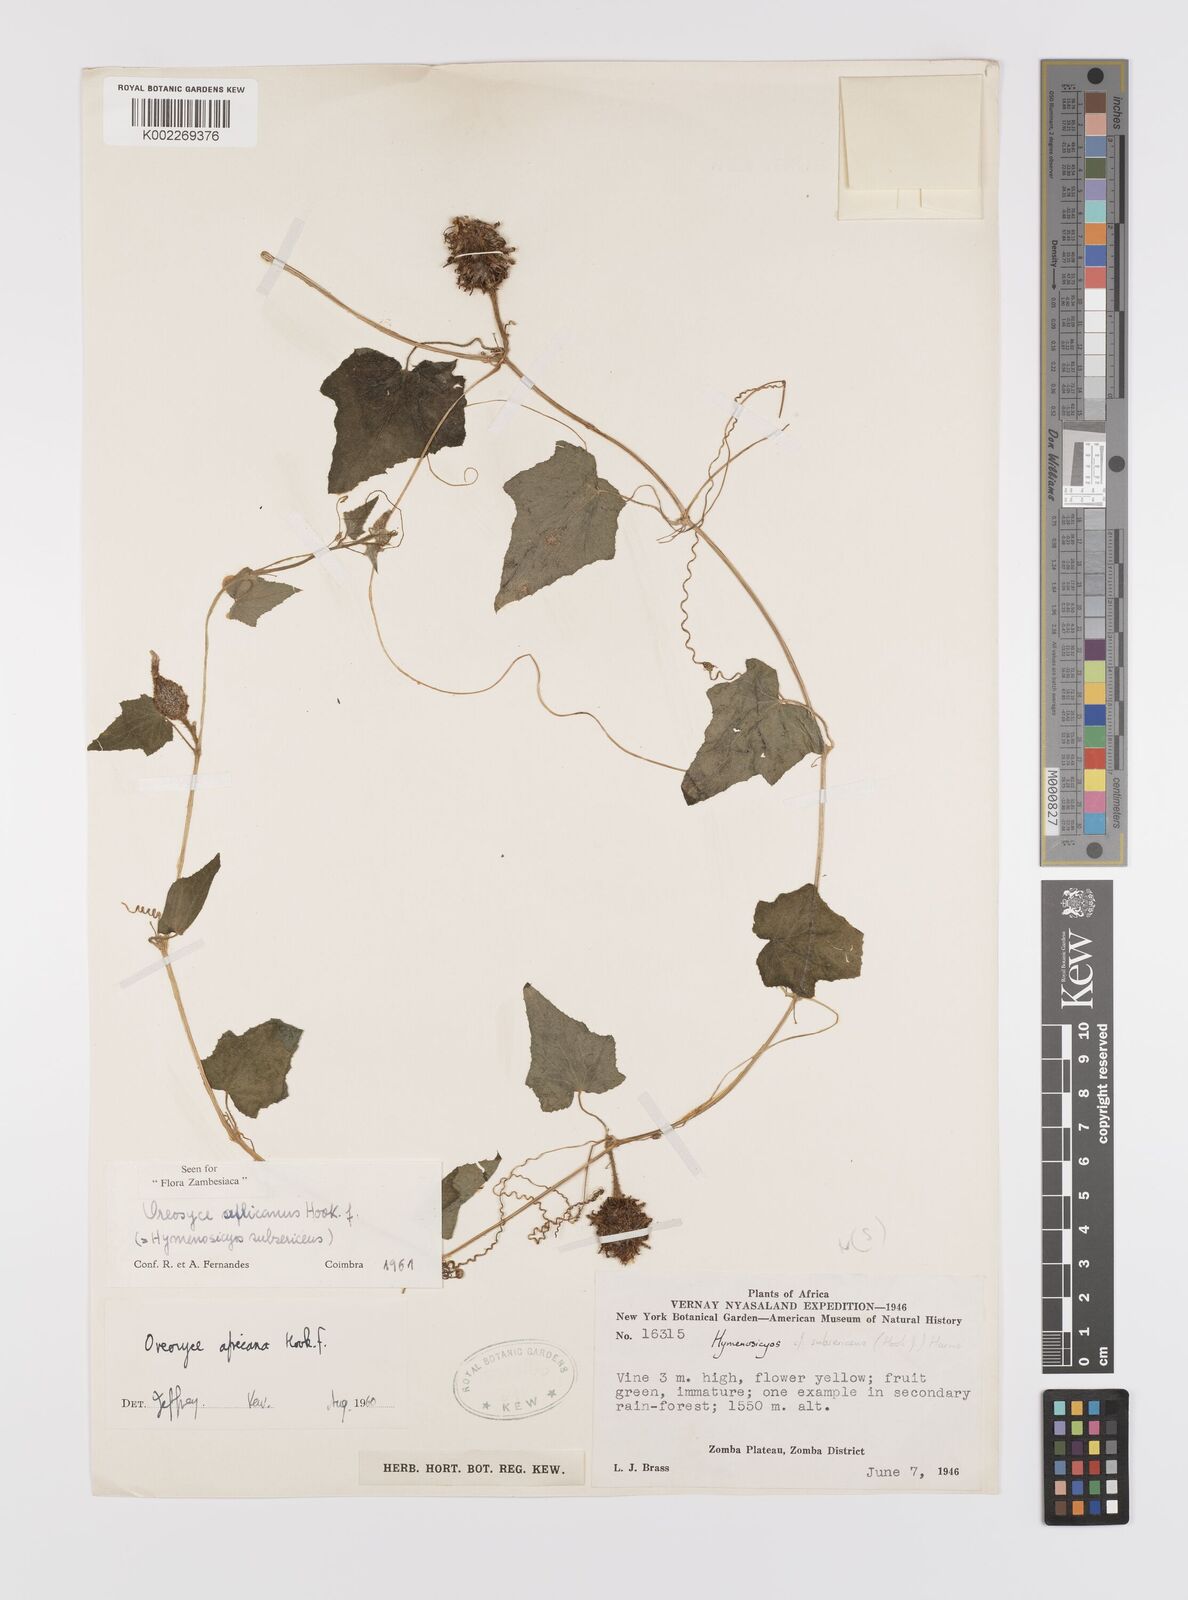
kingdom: Plantae
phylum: Tracheophyta
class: Magnoliopsida
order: Cucurbitales
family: Cucurbitaceae
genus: Cucumis
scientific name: Cucumis oreosyce
